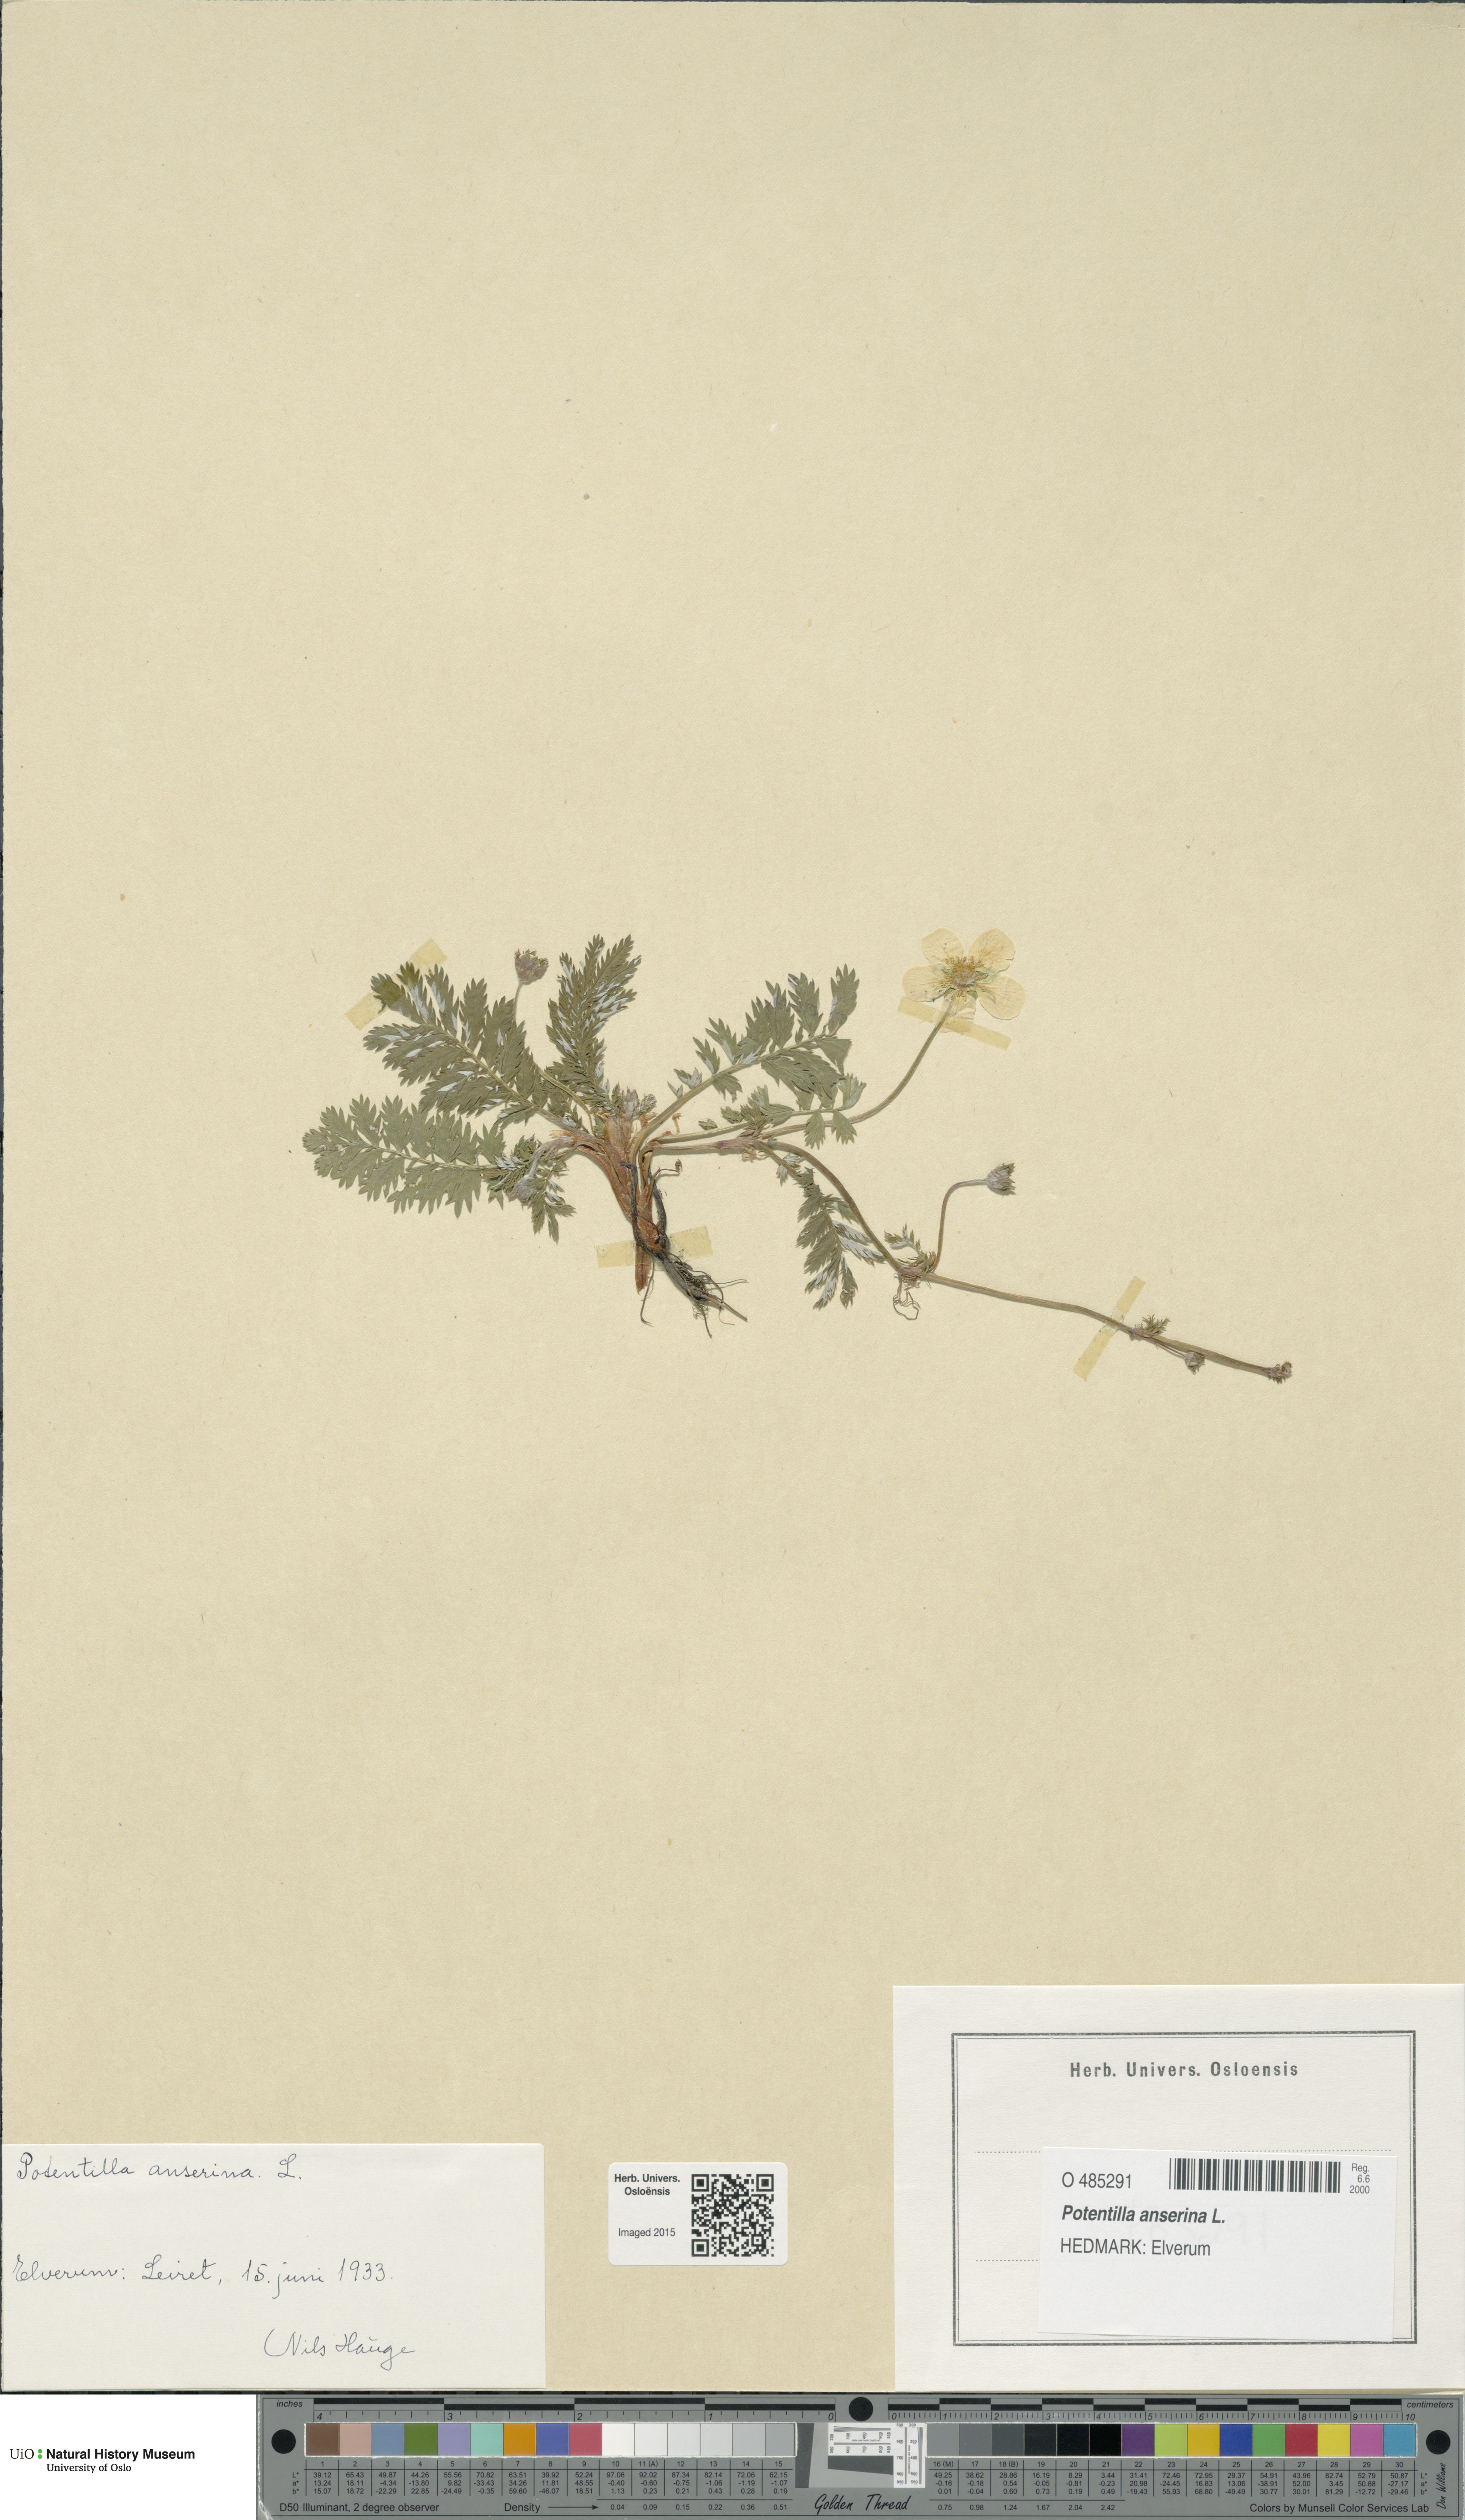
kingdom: Plantae
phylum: Tracheophyta
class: Magnoliopsida
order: Rosales
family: Rosaceae
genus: Argentina
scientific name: Argentina anserina
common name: Common silverweed
